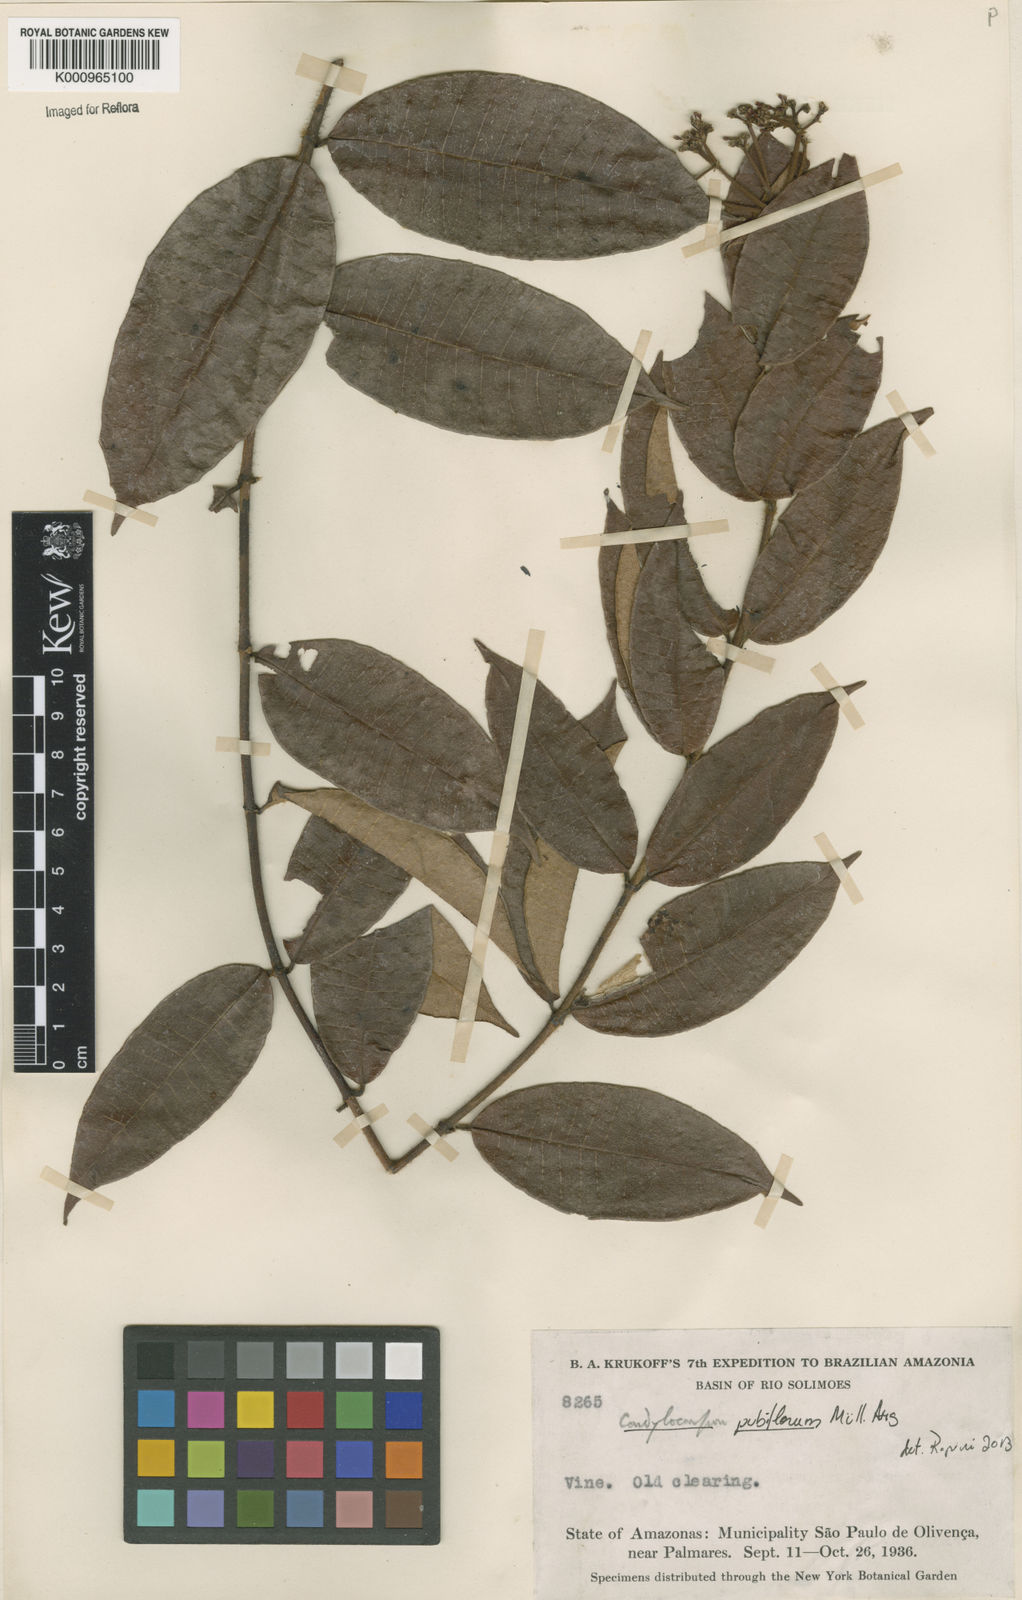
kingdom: Plantae
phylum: Tracheophyta
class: Magnoliopsida
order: Gentianales
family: Apocynaceae
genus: Condylocarpon
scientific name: Condylocarpon
